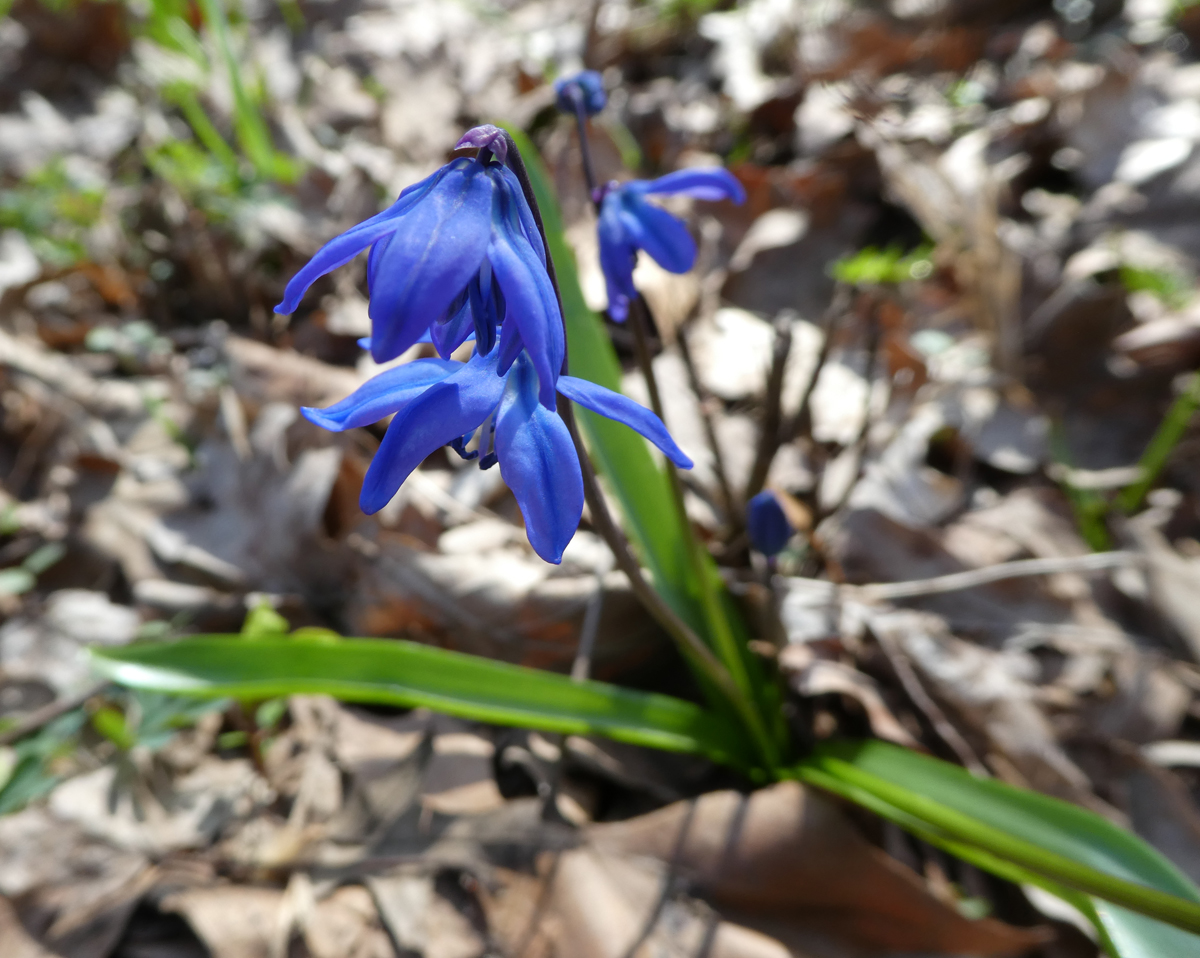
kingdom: Plantae
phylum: Tracheophyta
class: Liliopsida
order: Asparagales
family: Asparagaceae
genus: Scilla
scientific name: Scilla siberica
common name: Siberian squill
